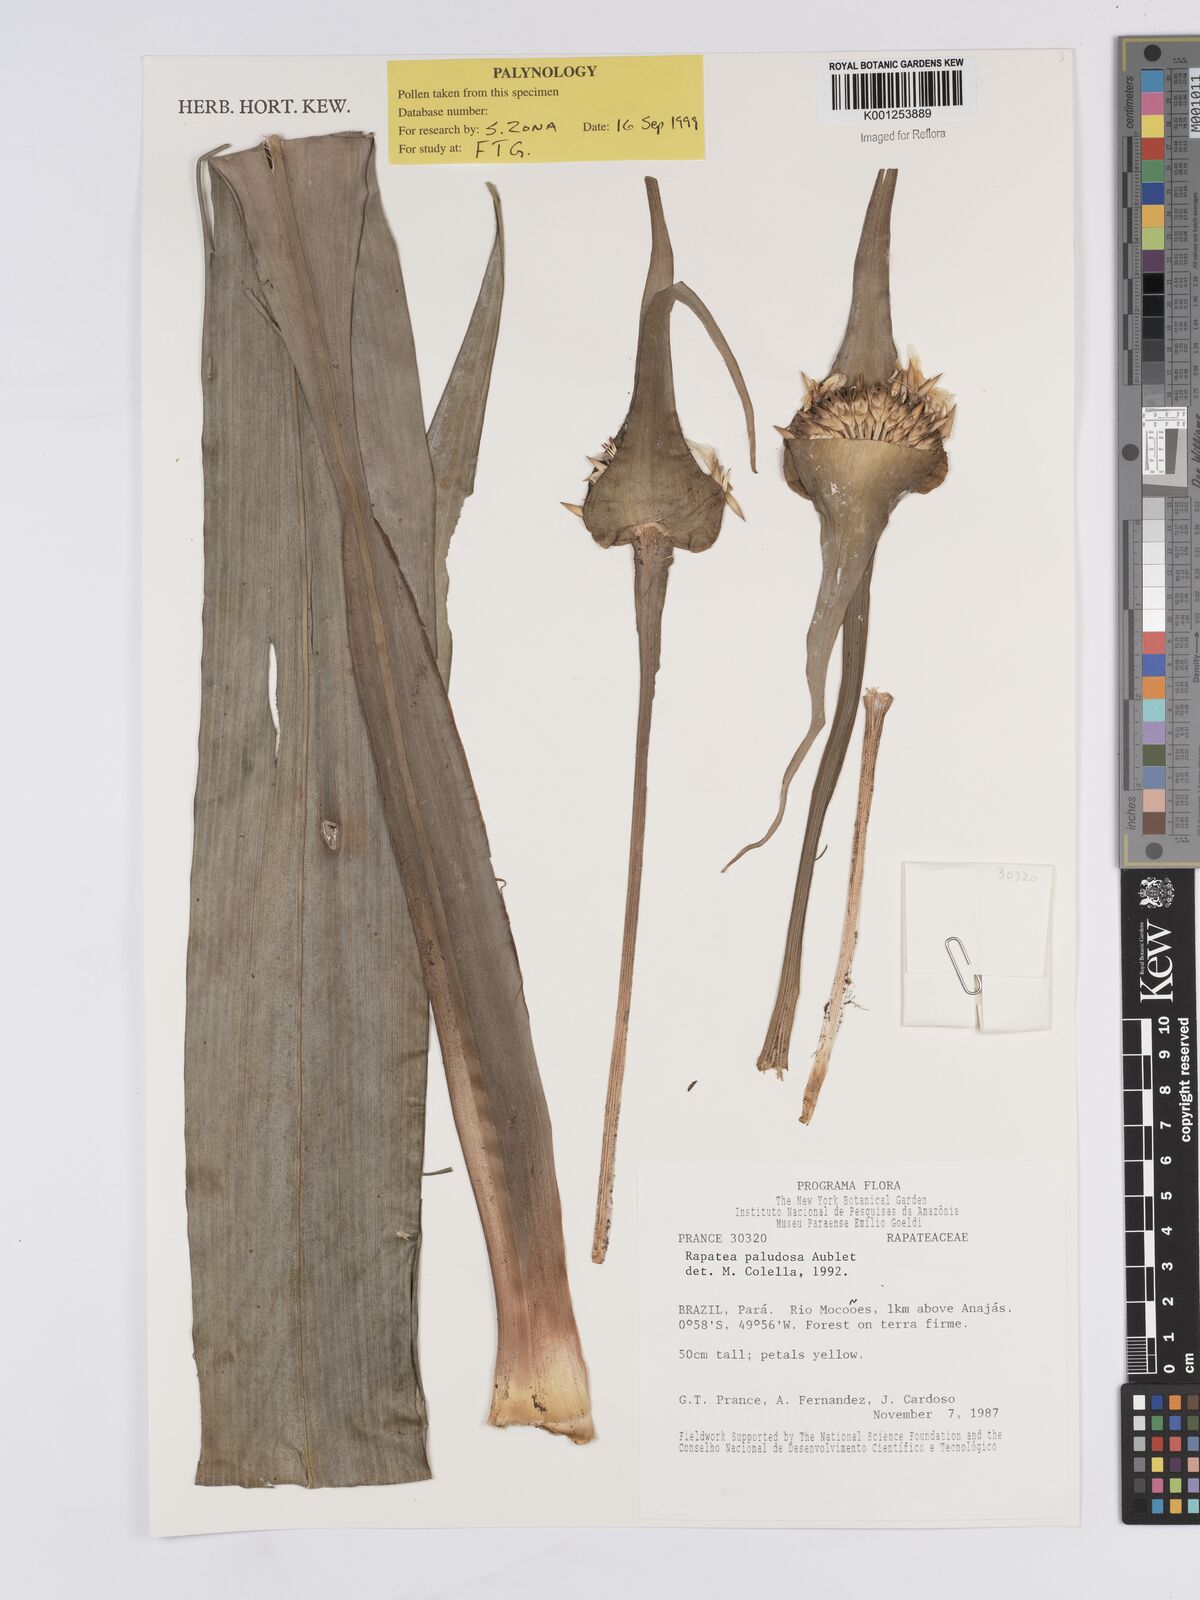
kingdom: Plantae
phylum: Tracheophyta
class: Liliopsida
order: Poales
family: Rapateaceae
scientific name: Rapateaceae
